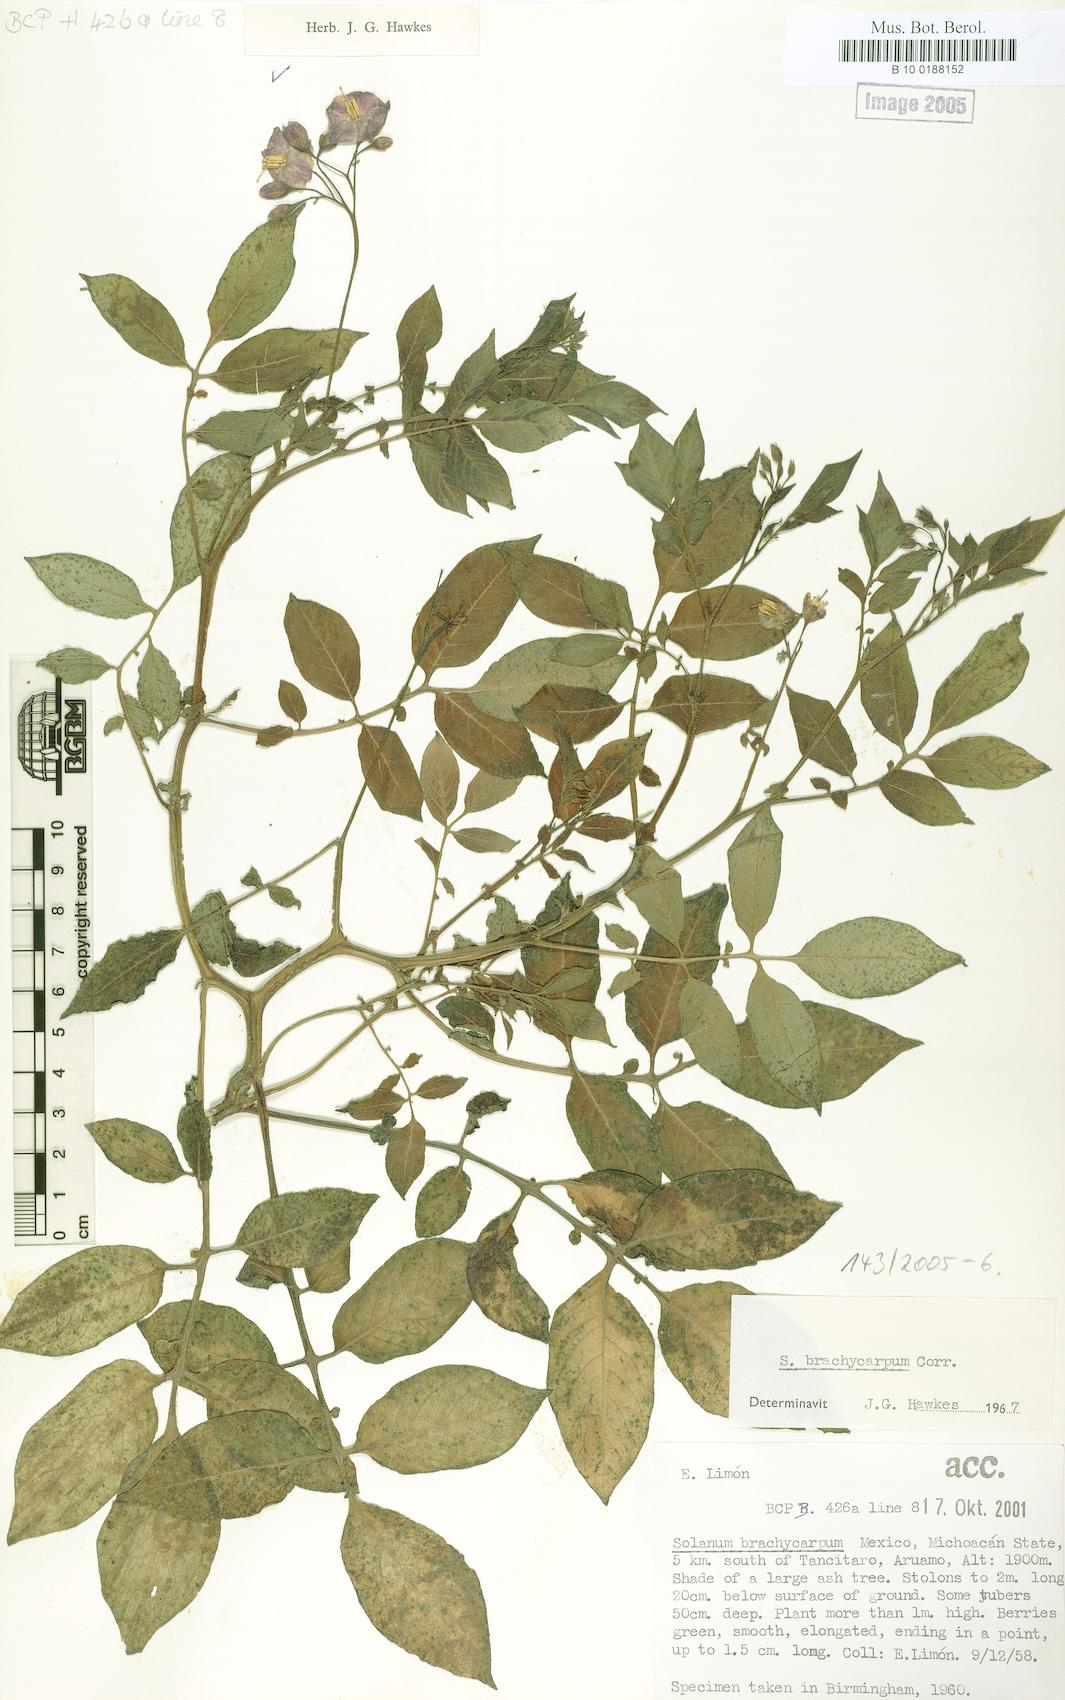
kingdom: Plantae
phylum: Tracheophyta
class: Magnoliopsida
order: Solanales
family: Solanaceae
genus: Solanum
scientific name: Solanum oxycarpum
